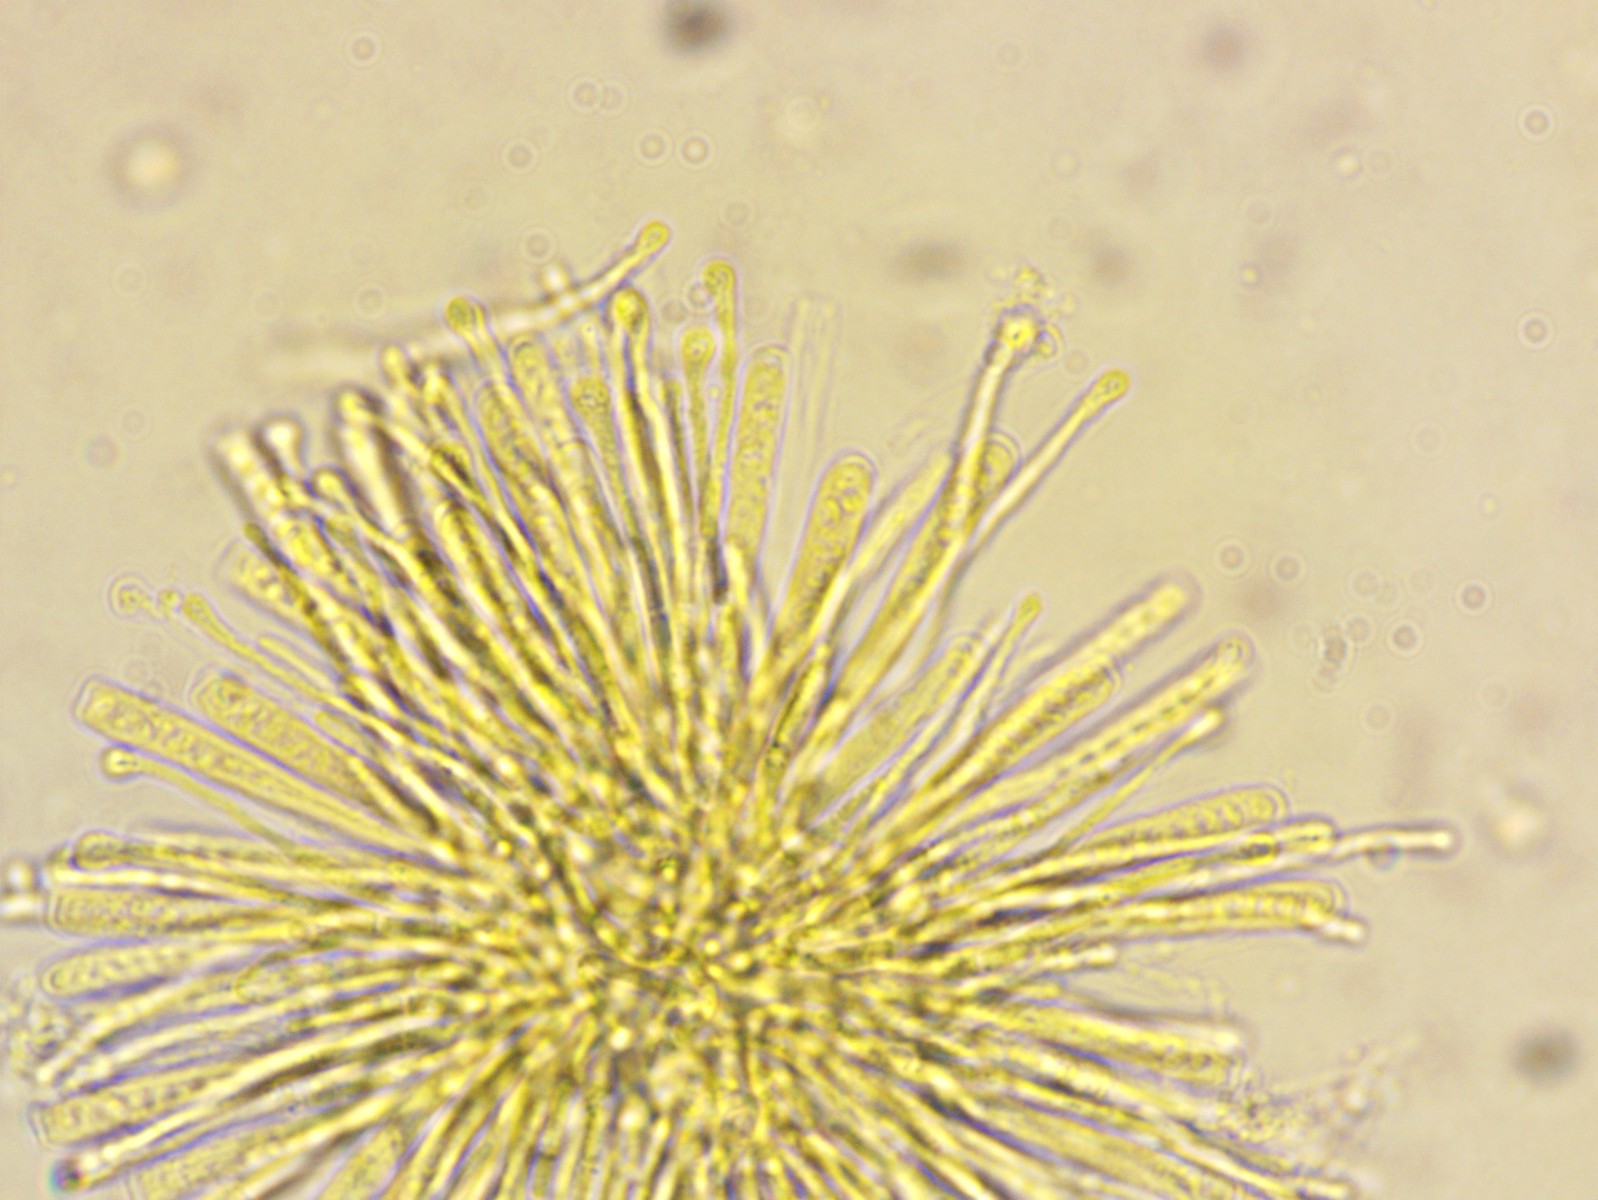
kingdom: Fungi
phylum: Ascomycota
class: Orbiliomycetes
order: Orbiliales
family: Orbiliaceae
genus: Orbilia
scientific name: Orbilia xanthostigma
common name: krumsporet voksskive
